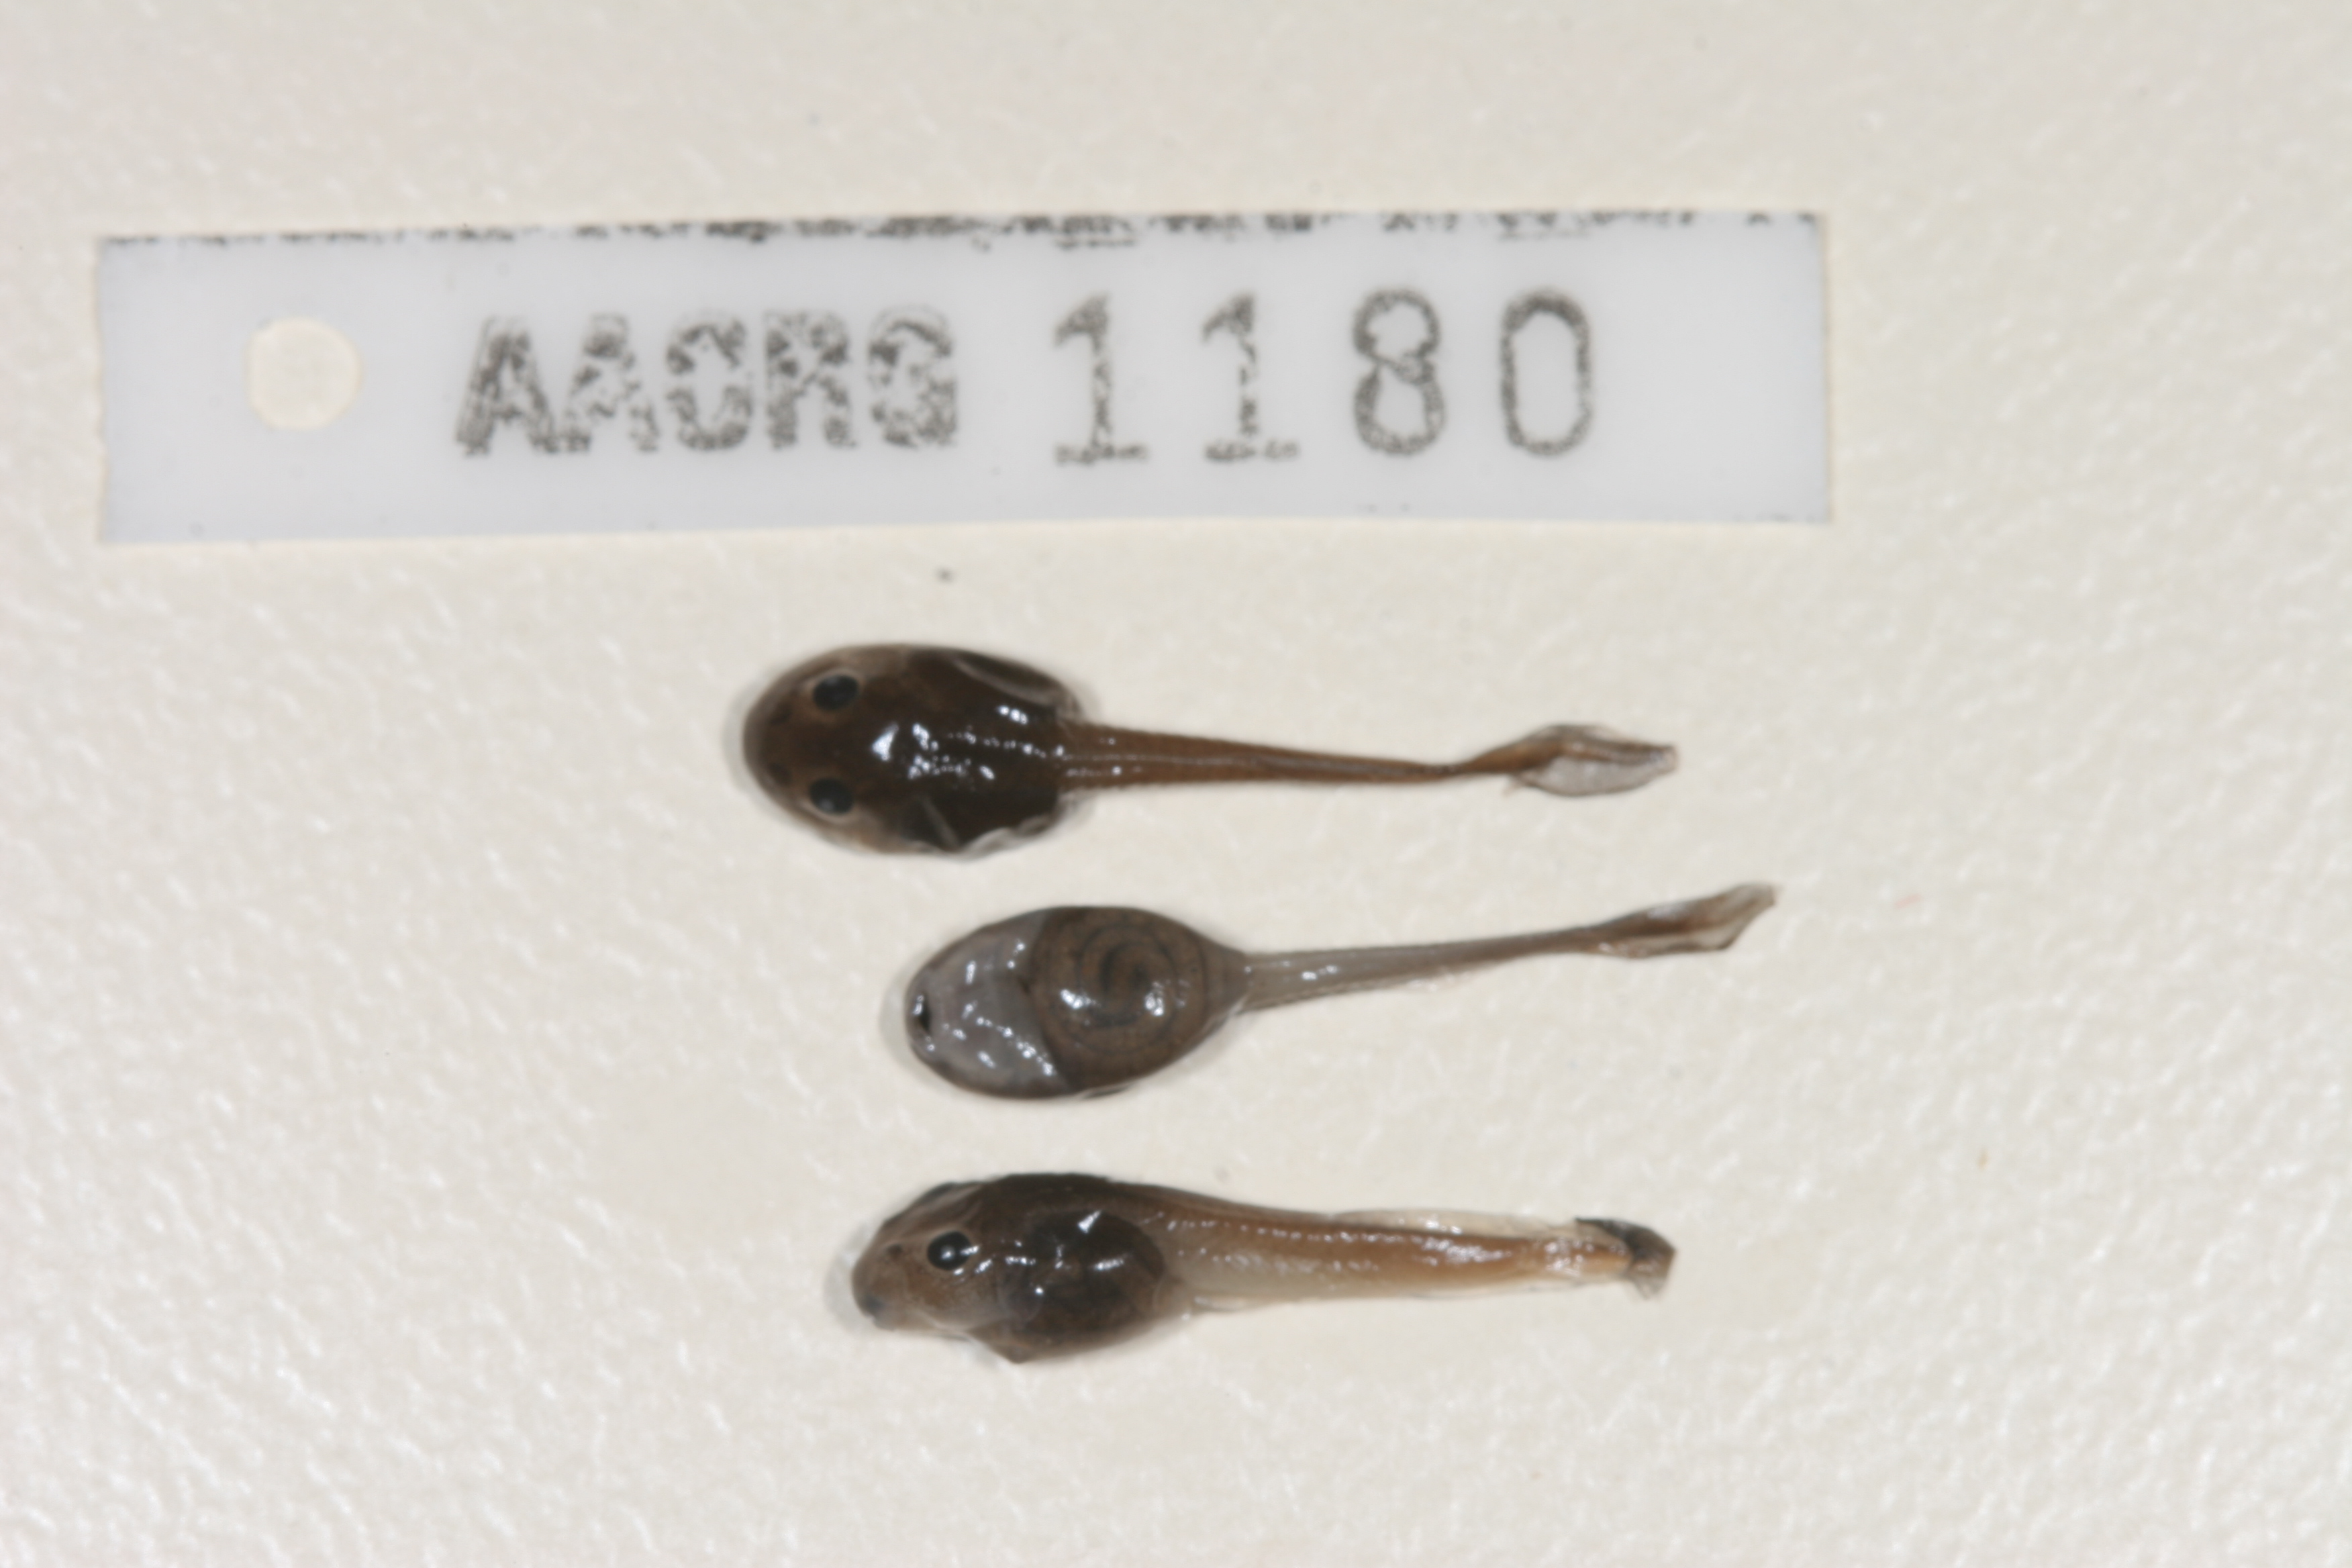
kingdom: Animalia
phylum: Chordata
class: Amphibia
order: Anura
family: Pyxicephalidae
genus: Strongylopus
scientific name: Strongylopus wageri
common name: Wager's stream frog
